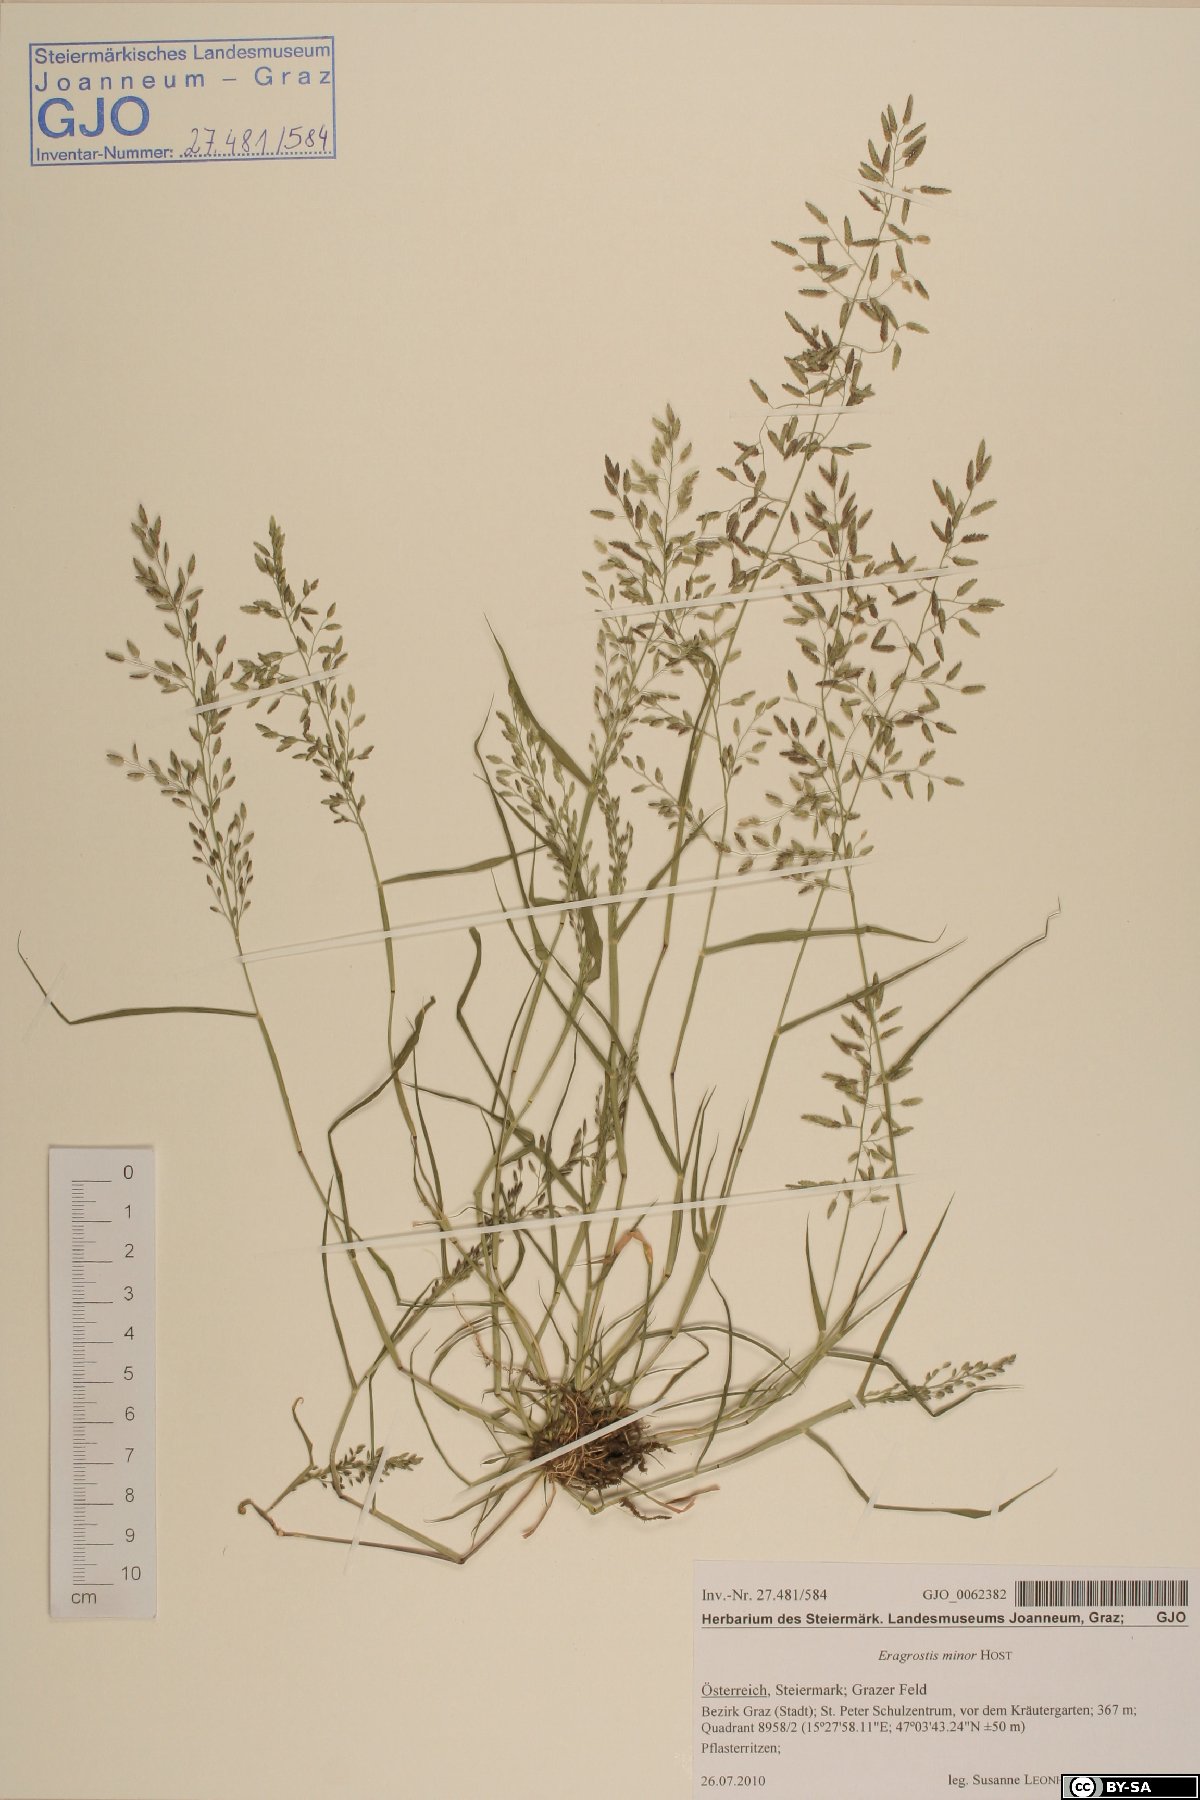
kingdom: Plantae
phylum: Tracheophyta
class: Liliopsida
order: Poales
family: Poaceae
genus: Eragrostis
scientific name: Eragrostis minor
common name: Small love-grass
